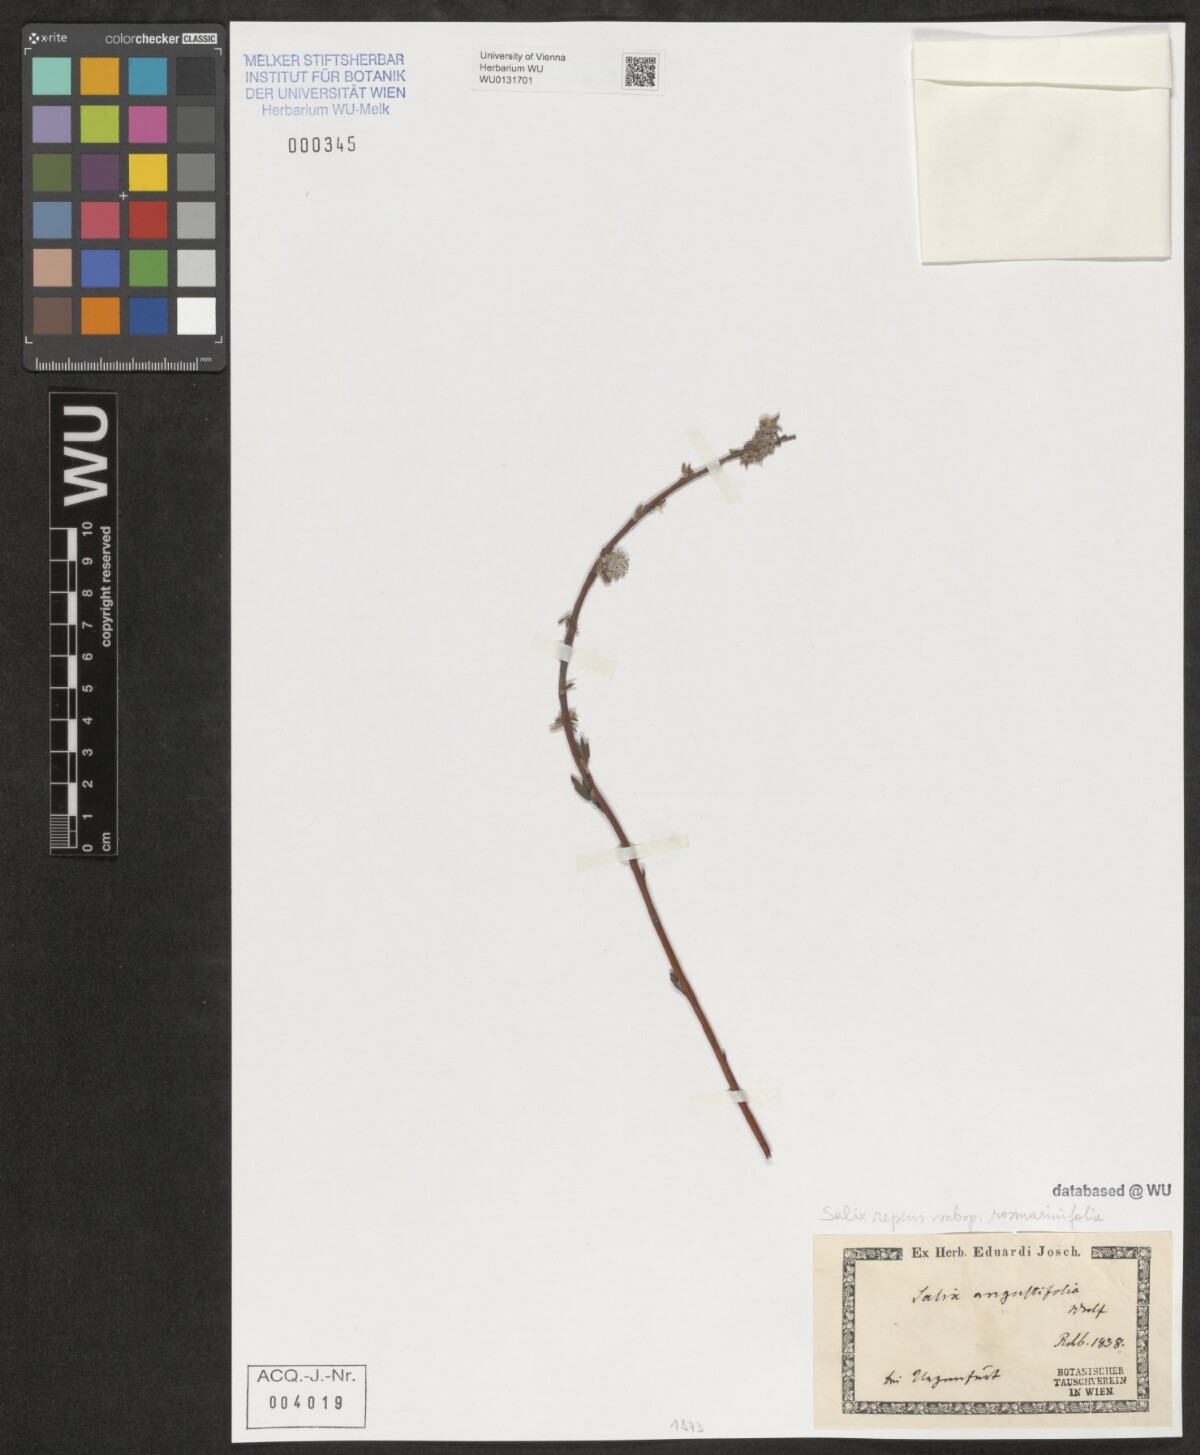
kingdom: Plantae
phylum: Tracheophyta
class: Magnoliopsida
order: Malpighiales
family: Salicaceae
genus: Salix
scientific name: Salix repens
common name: Creeping willow
